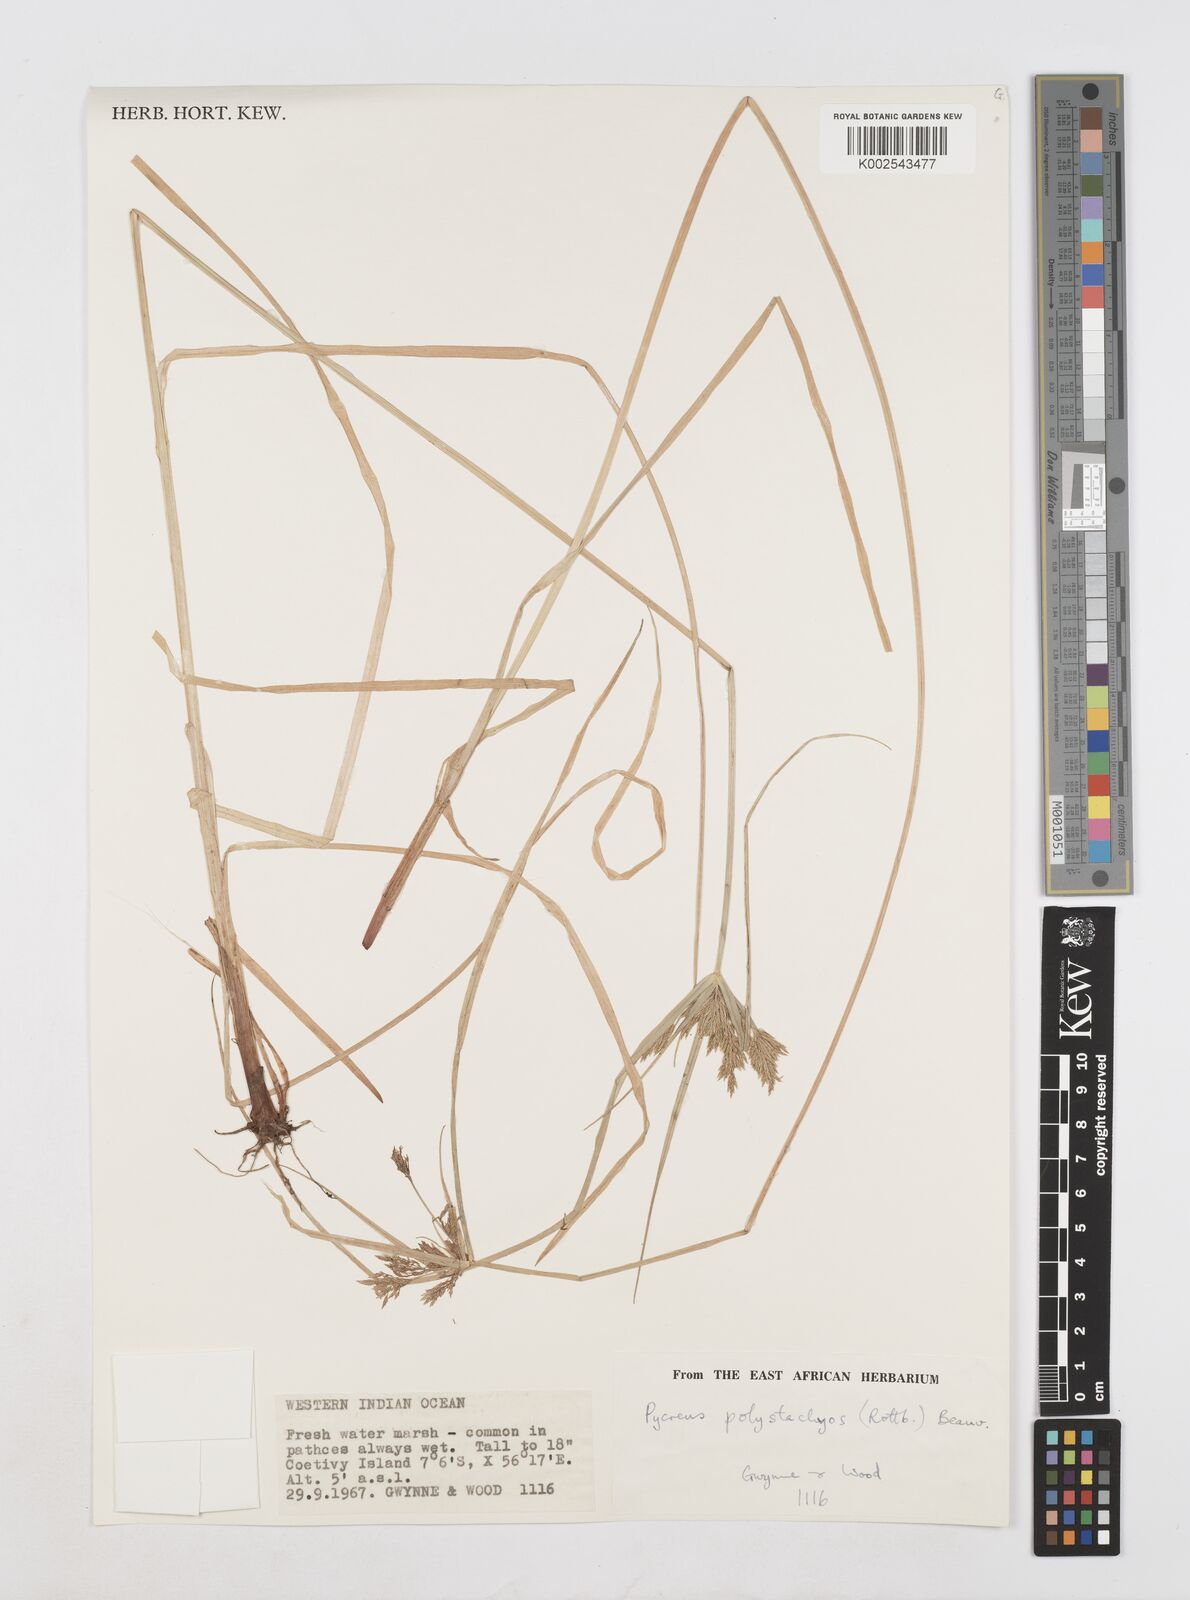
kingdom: Plantae
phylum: Tracheophyta
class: Liliopsida
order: Poales
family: Cyperaceae
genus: Cyperus
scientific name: Cyperus polystachyos
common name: Bunchy flat sedge
